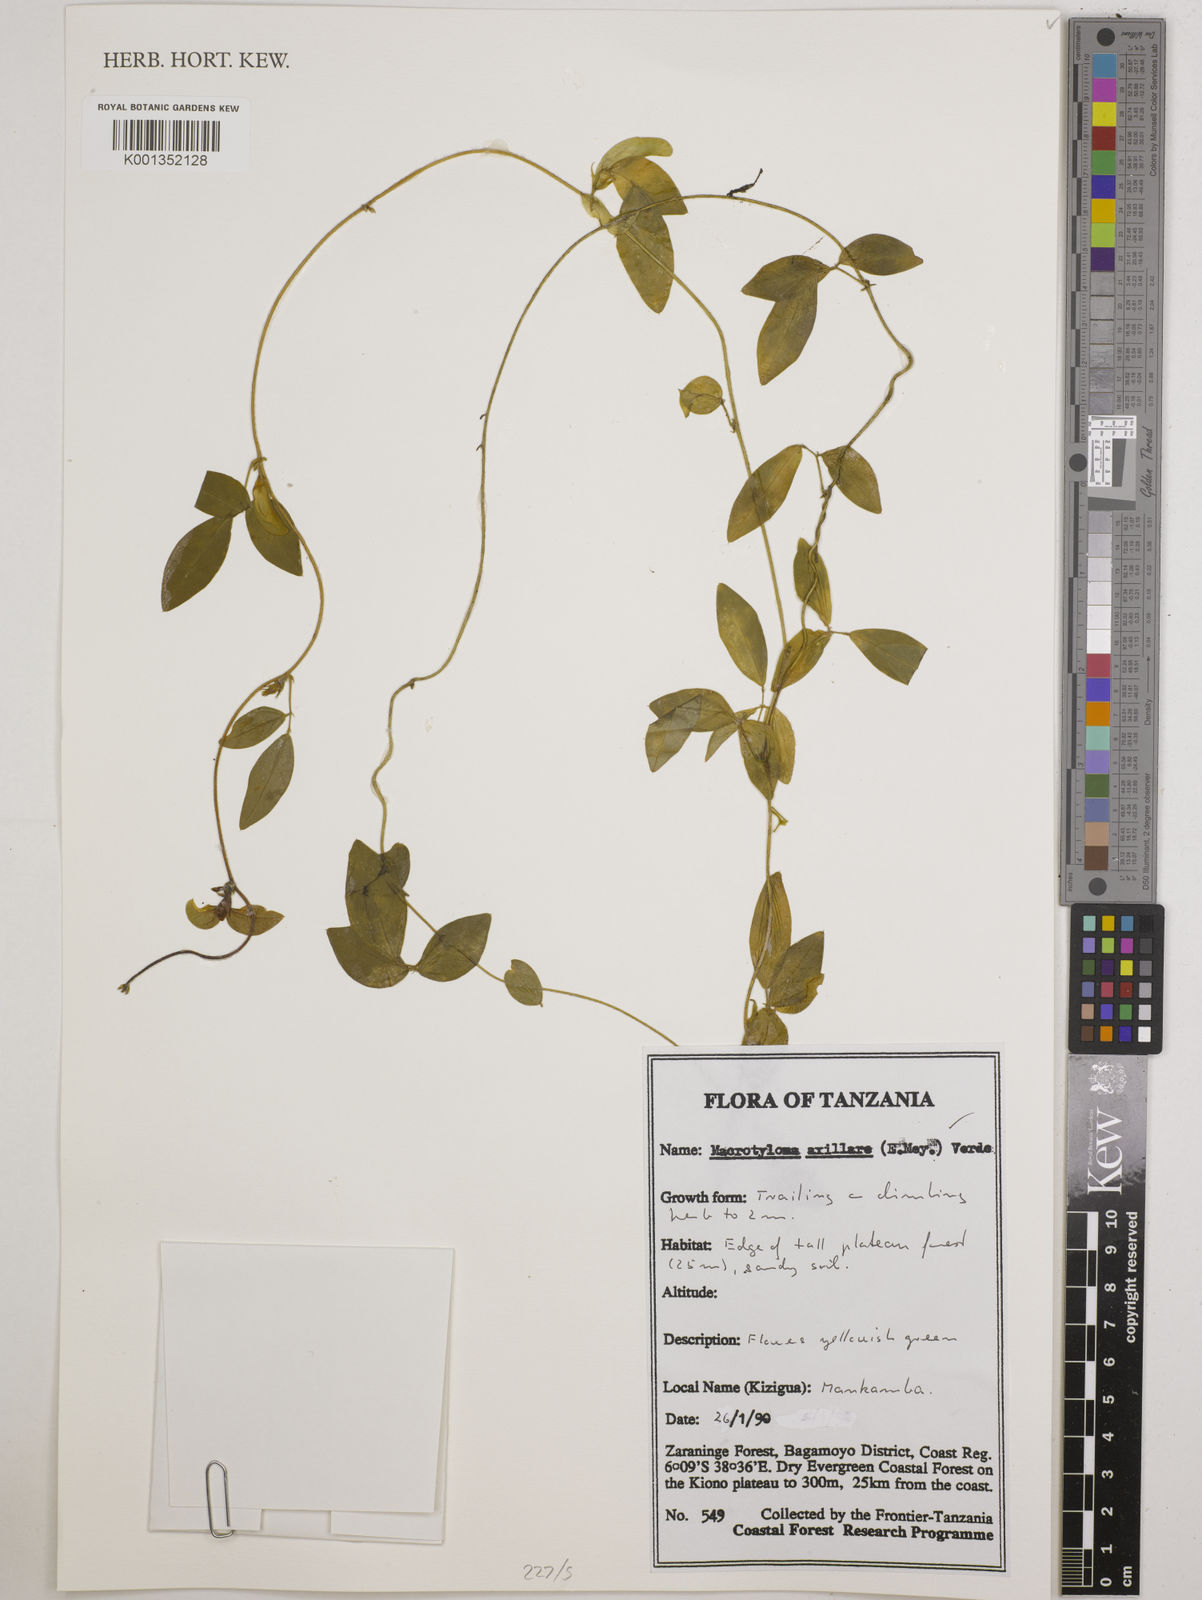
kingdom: Plantae
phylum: Tracheophyta
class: Magnoliopsida
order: Fabales
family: Fabaceae
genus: Macrotyloma
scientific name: Macrotyloma axillare
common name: Perennial horsegram
